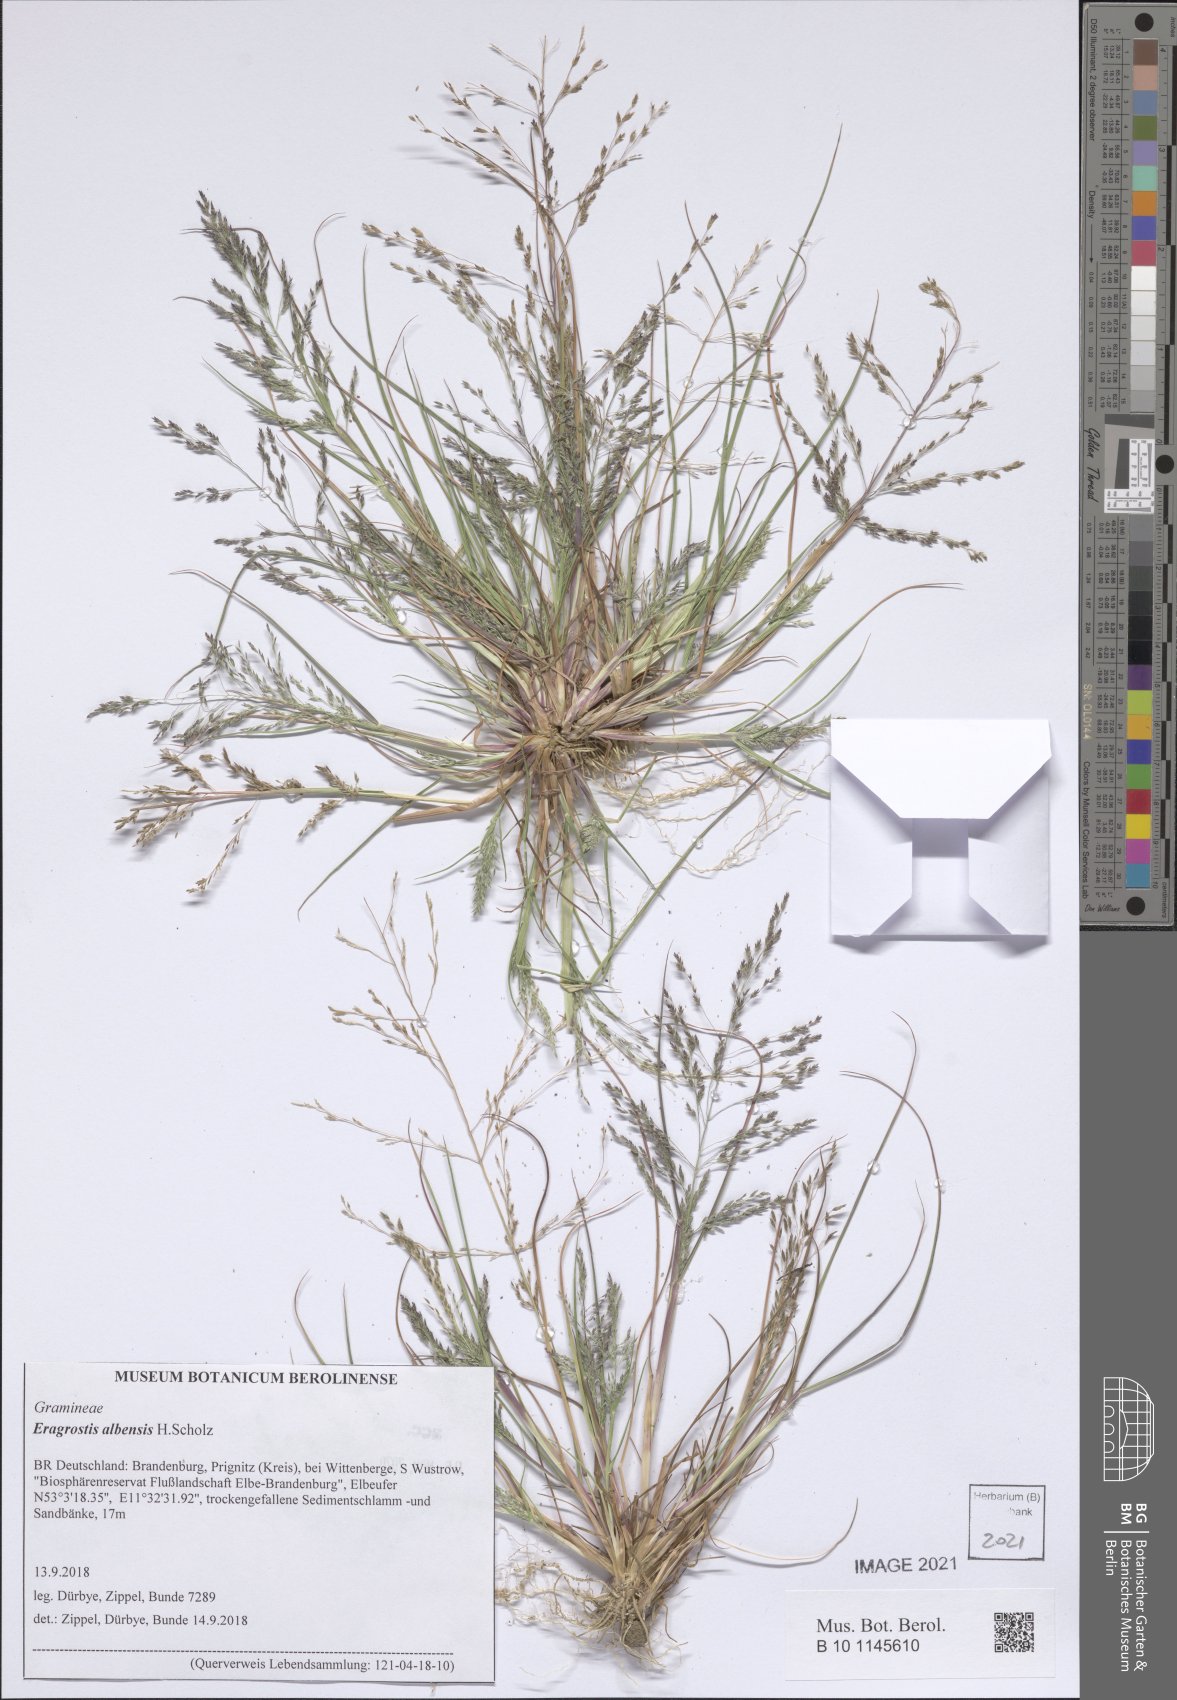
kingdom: Plantae
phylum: Tracheophyta
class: Liliopsida
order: Poales
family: Poaceae
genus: Eragrostis
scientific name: Eragrostis pilosa
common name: Indian lovegrass
